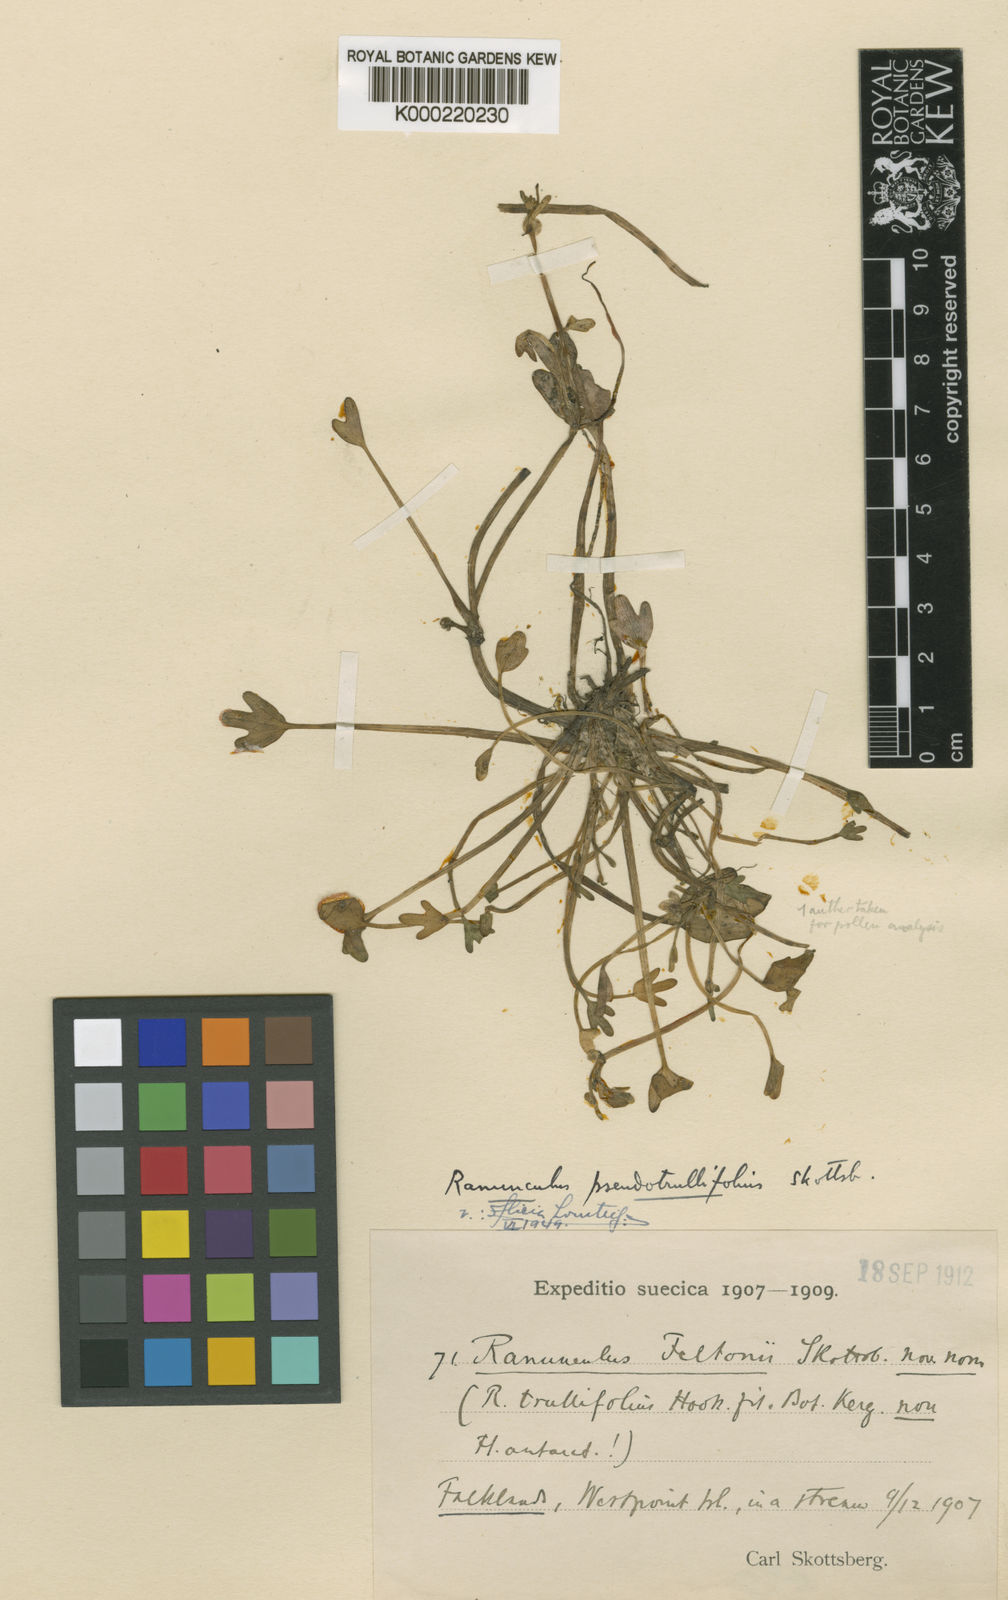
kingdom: Plantae
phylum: Tracheophyta
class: Magnoliopsida
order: Ranunculales
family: Ranunculaceae
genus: Ranunculus
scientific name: Ranunculus pseudotrullifolius
